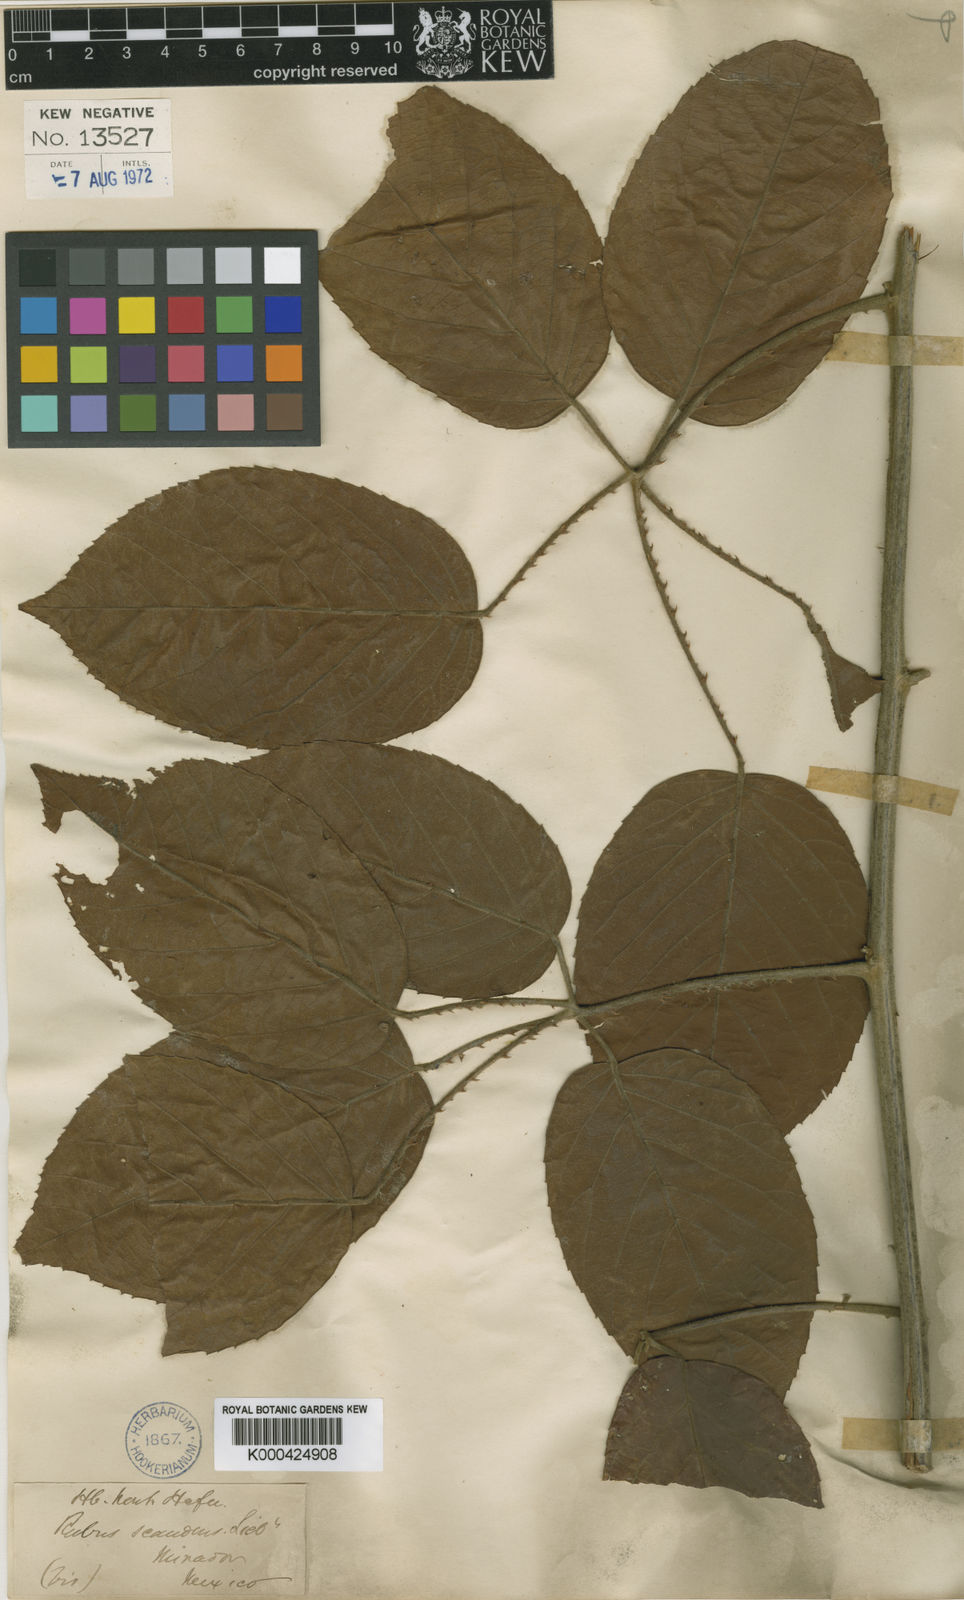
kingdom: Plantae
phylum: Tracheophyta
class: Magnoliopsida
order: Rosales
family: Rosaceae
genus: Rubus
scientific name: Rubus pseudofagifolius
